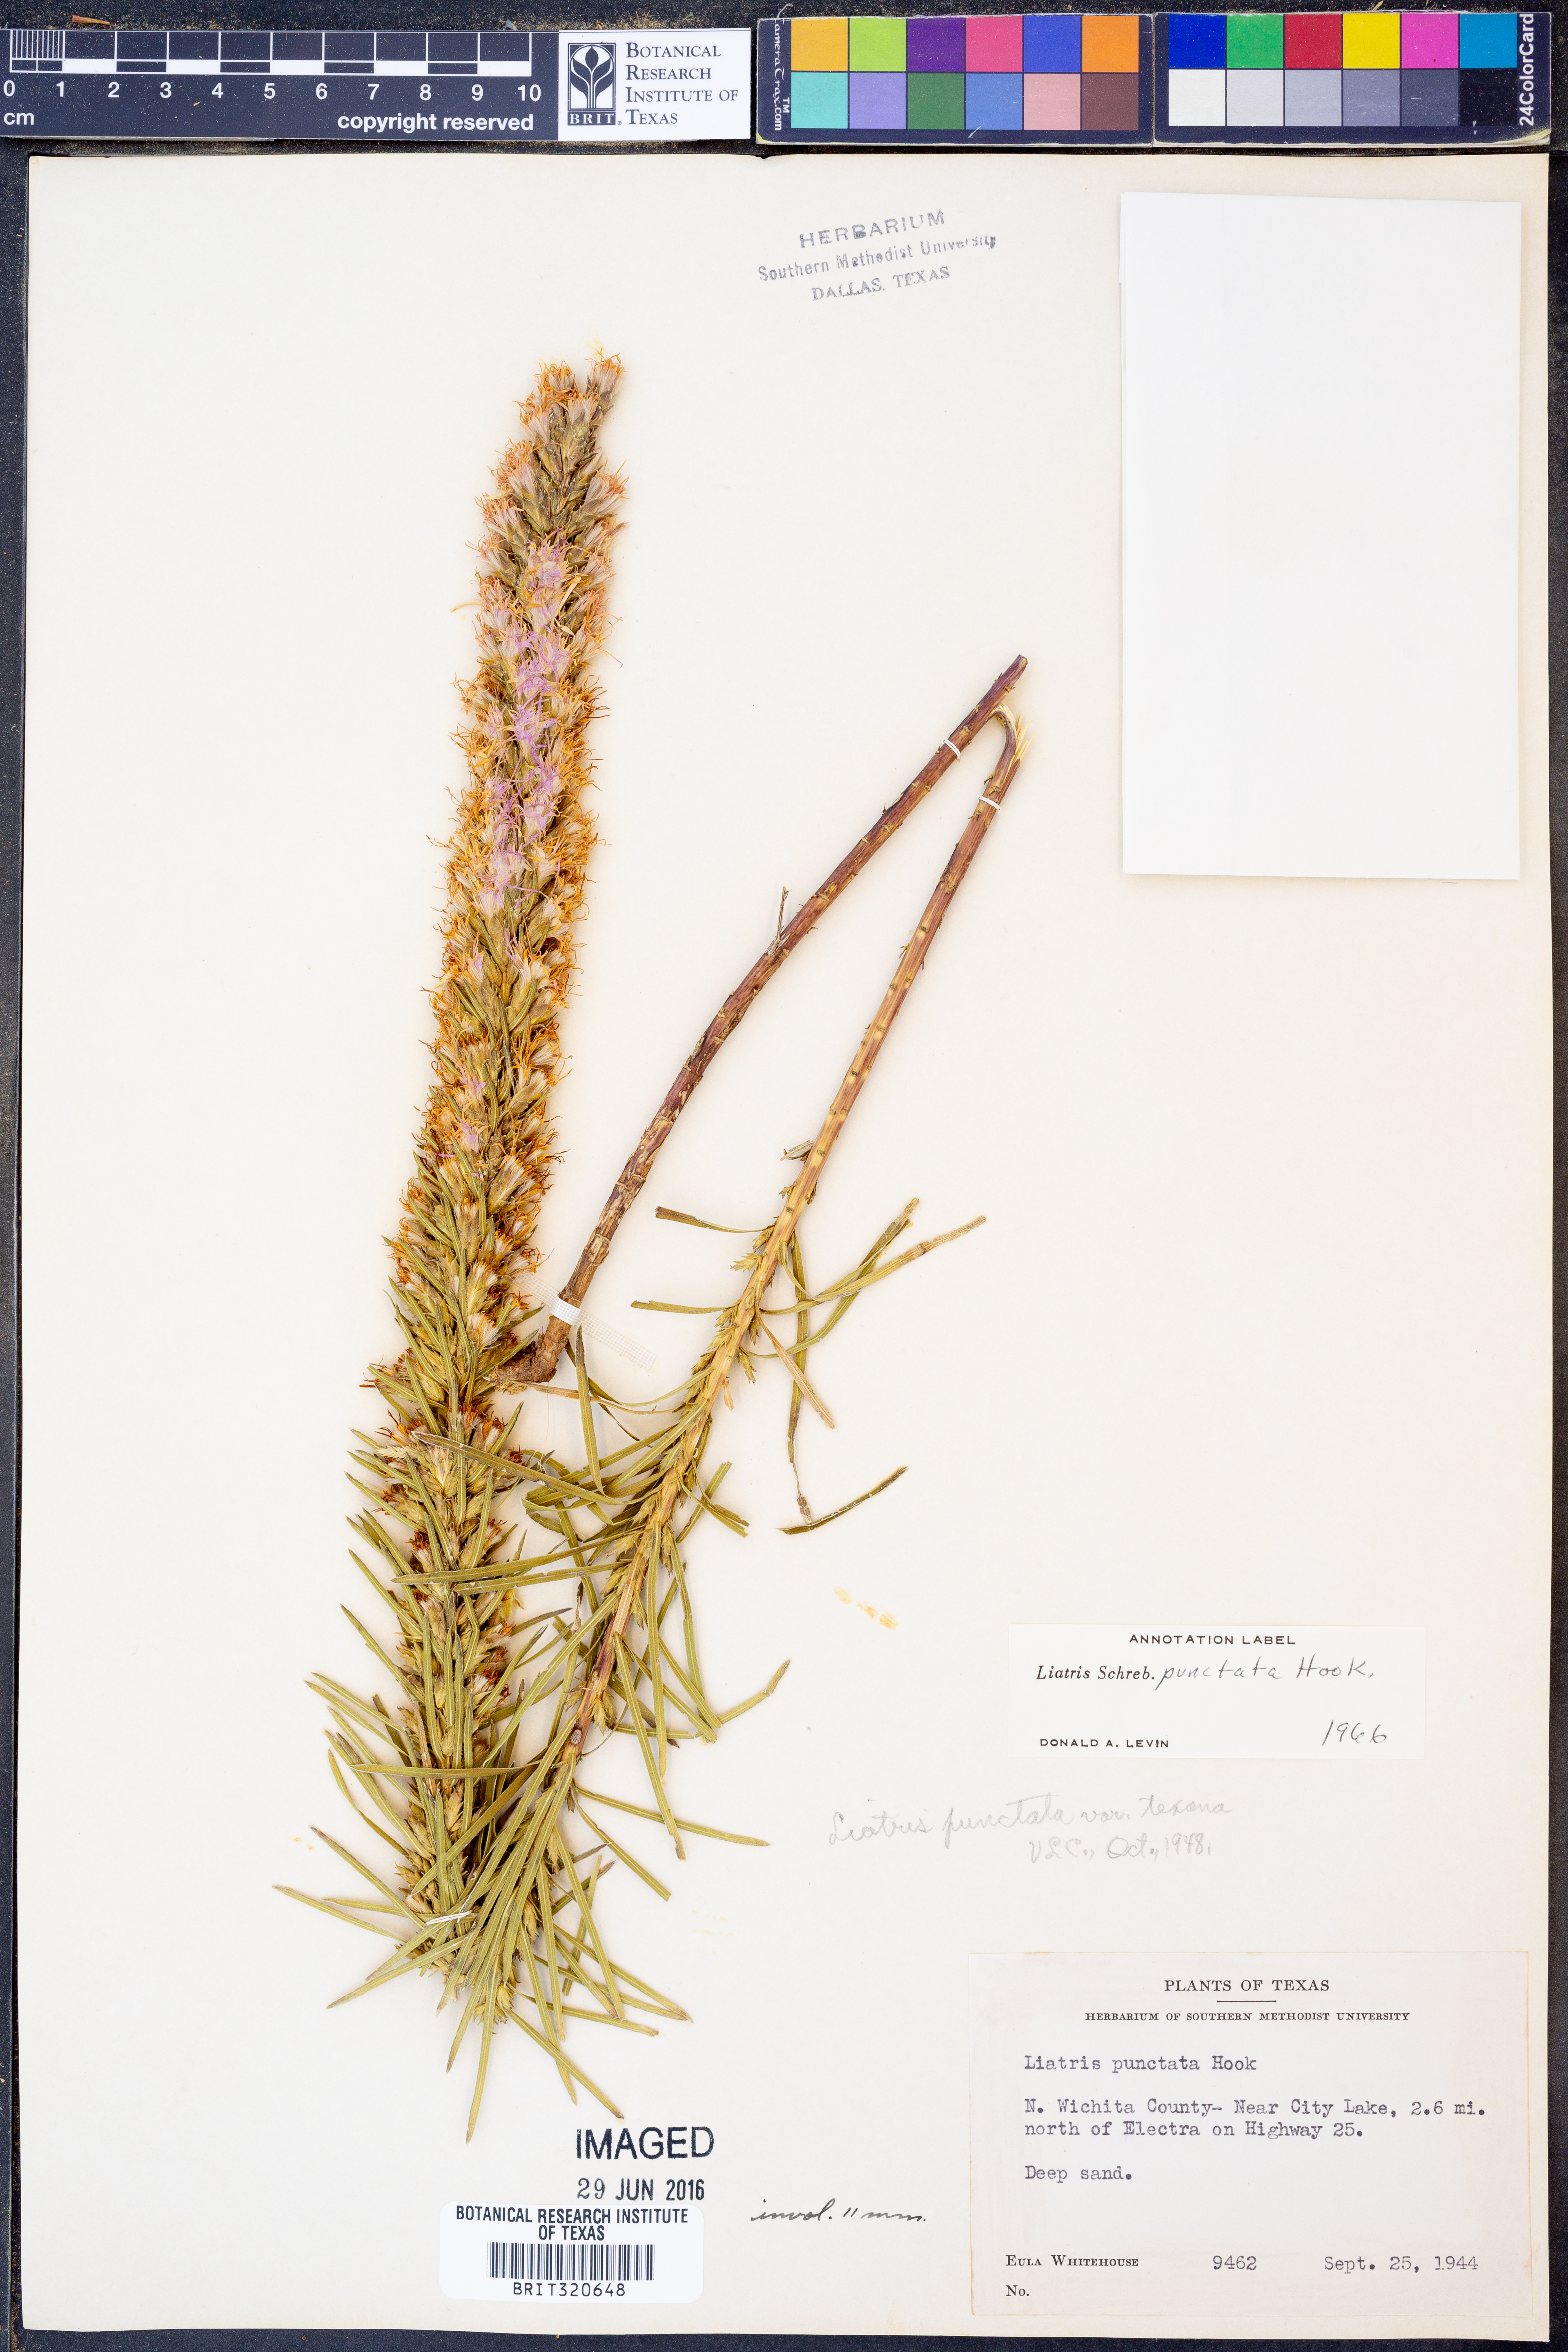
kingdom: Plantae
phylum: Tracheophyta
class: Magnoliopsida
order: Asterales
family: Asteraceae
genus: Liatris
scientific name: Liatris punctata
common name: Dotted gayfeather
